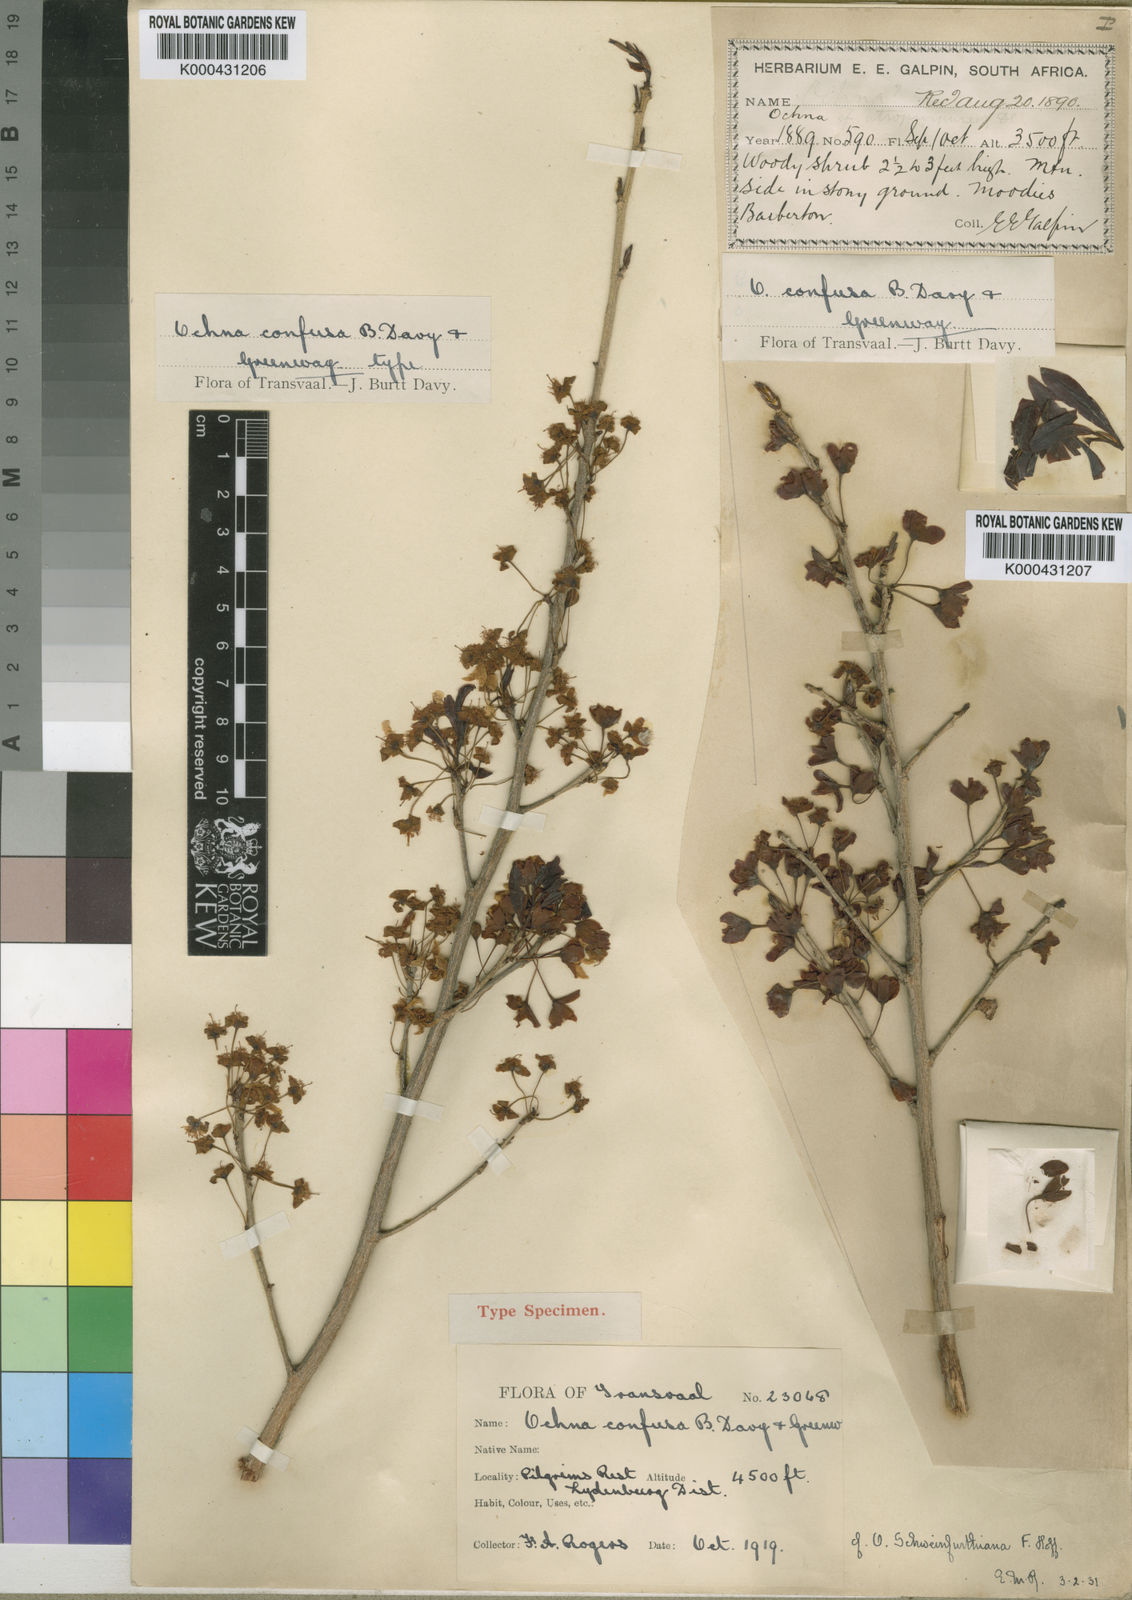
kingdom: Plantae
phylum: Tracheophyta
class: Magnoliopsida
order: Malpighiales
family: Ochnaceae
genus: Ochna
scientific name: Ochna confusa
